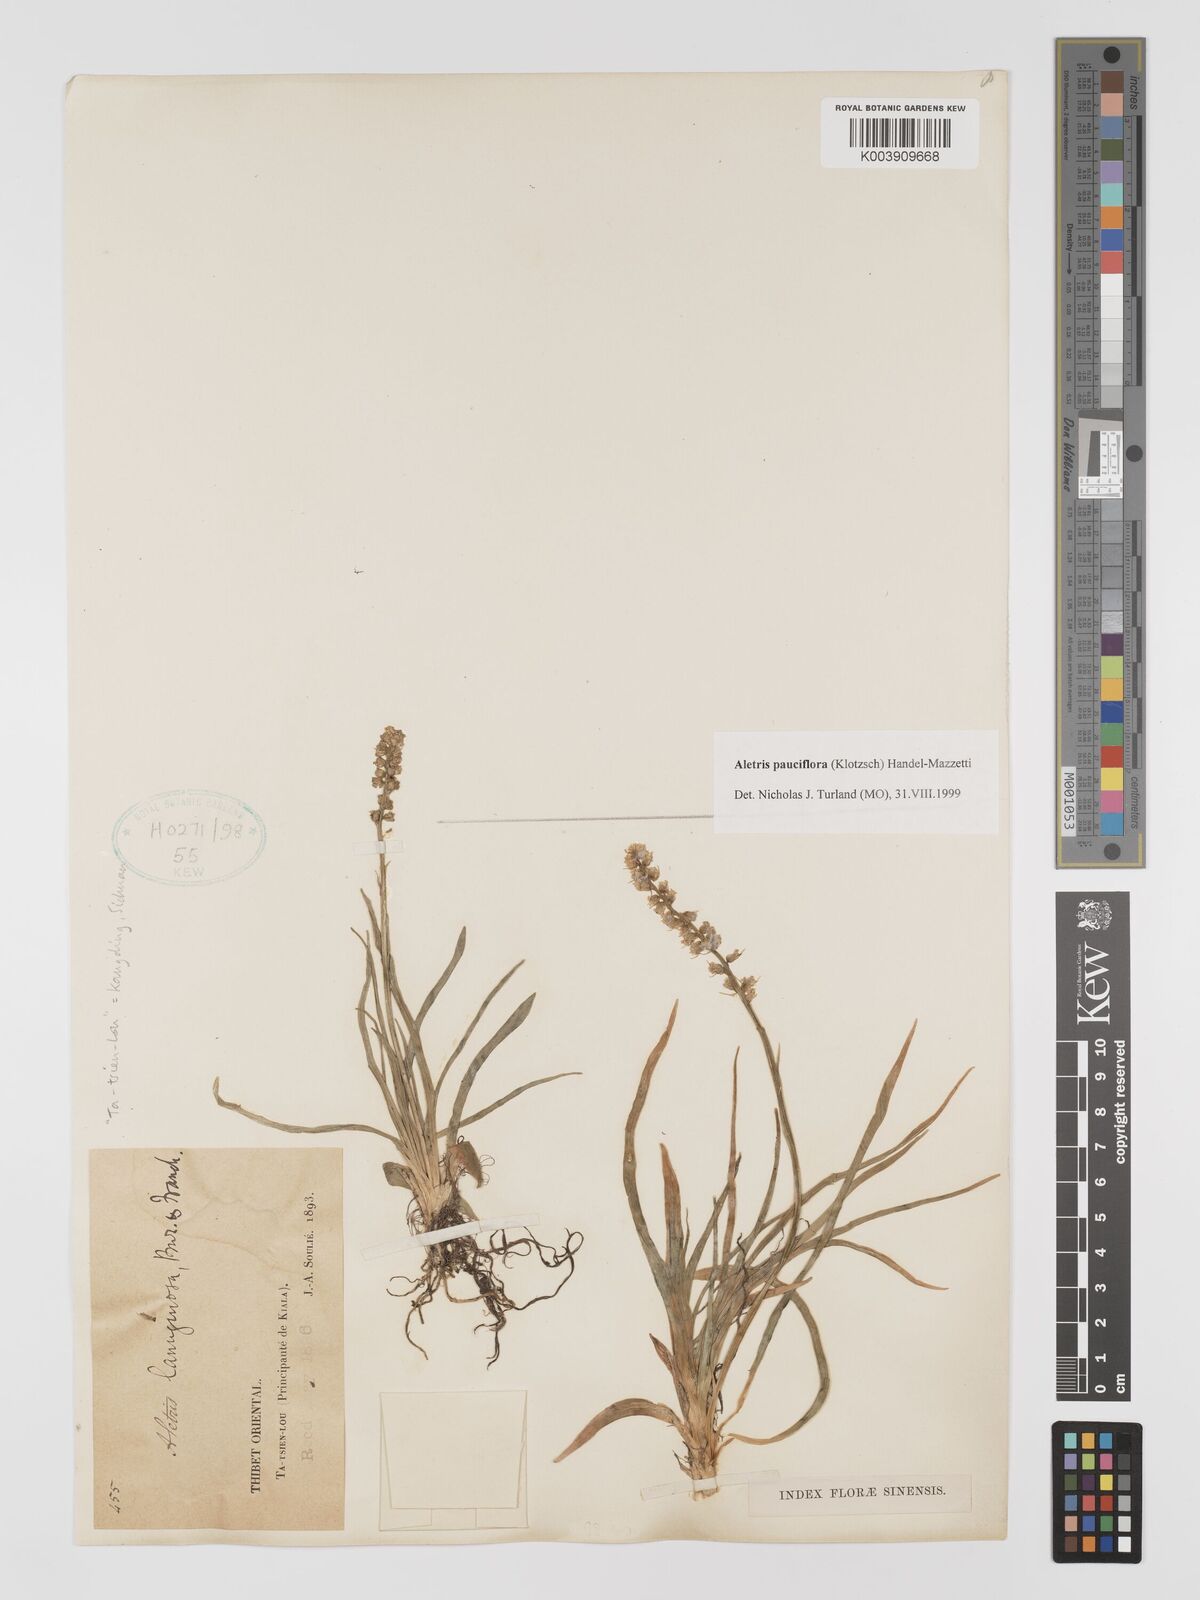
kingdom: Plantae
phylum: Tracheophyta
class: Liliopsida
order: Dioscoreales
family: Nartheciaceae
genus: Aletris
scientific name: Aletris pauciflora
